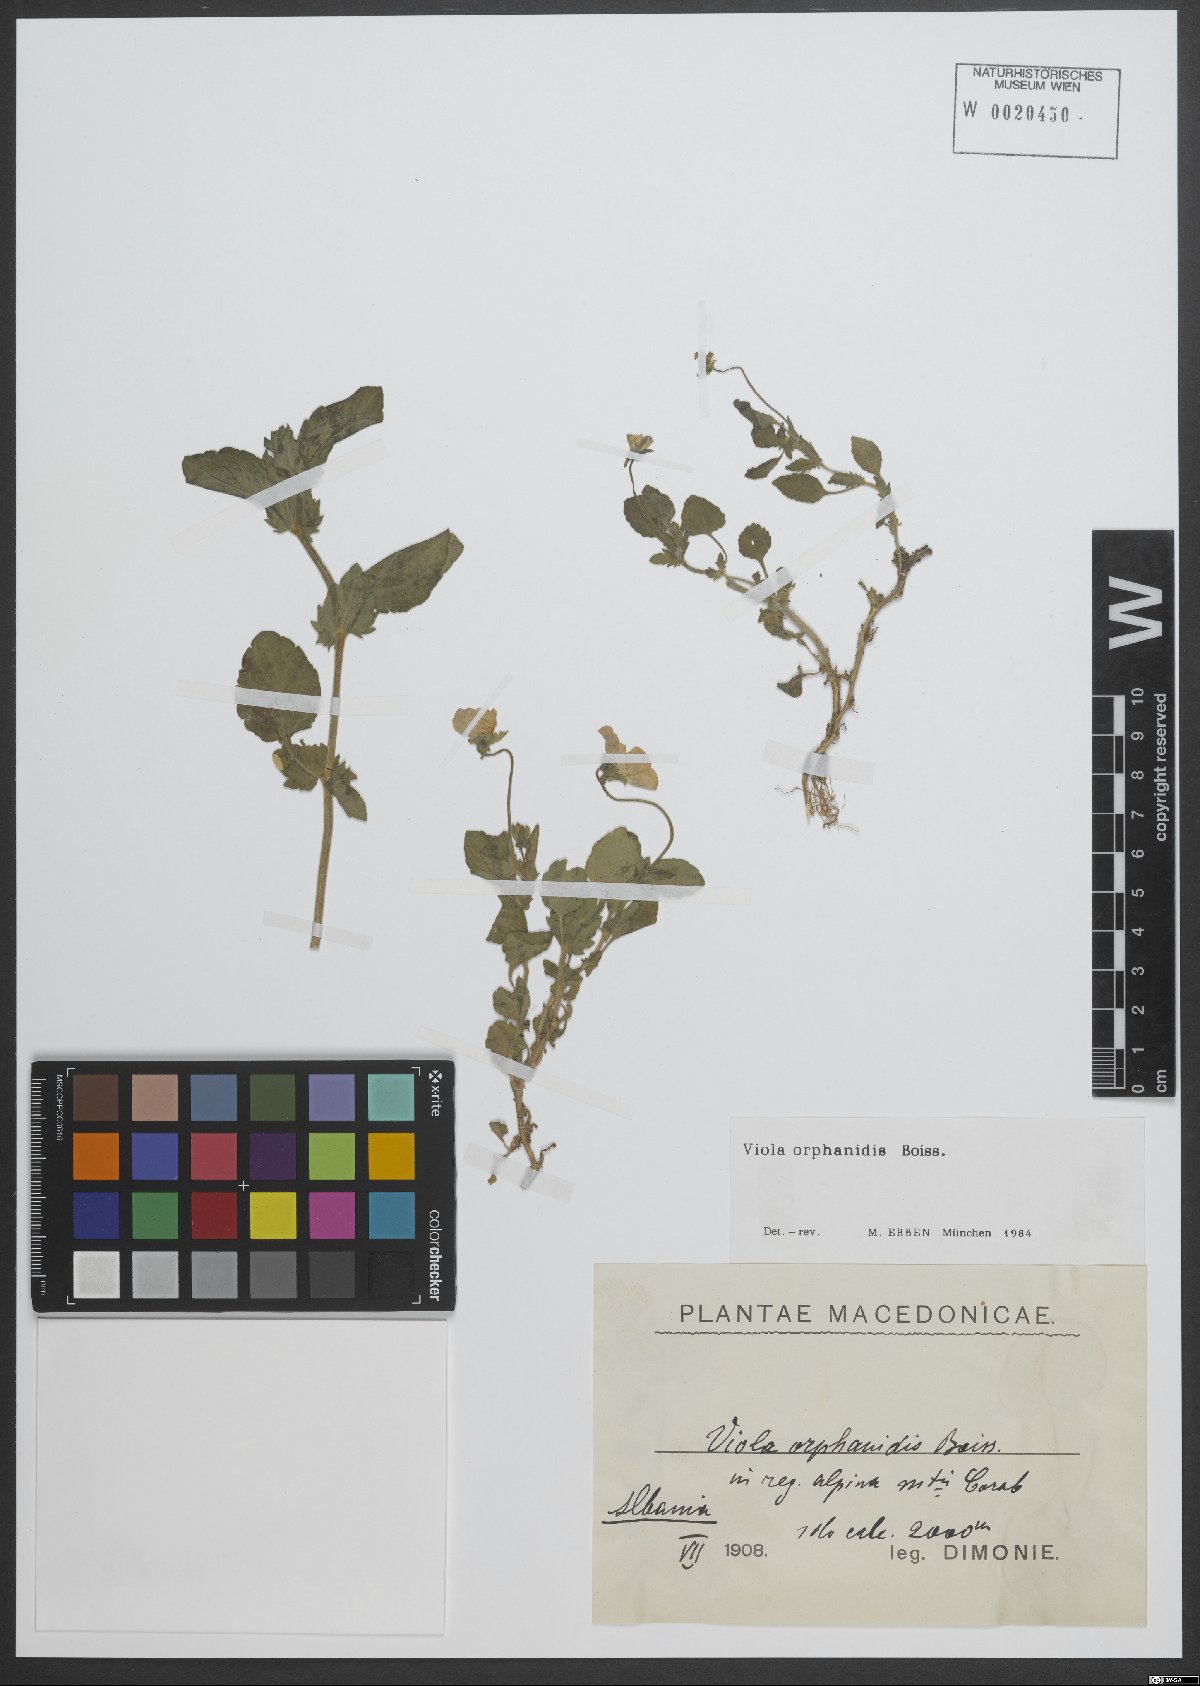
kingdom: Plantae
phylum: Tracheophyta
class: Magnoliopsida
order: Malpighiales
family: Violaceae
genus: Viola
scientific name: Viola orphanidis
